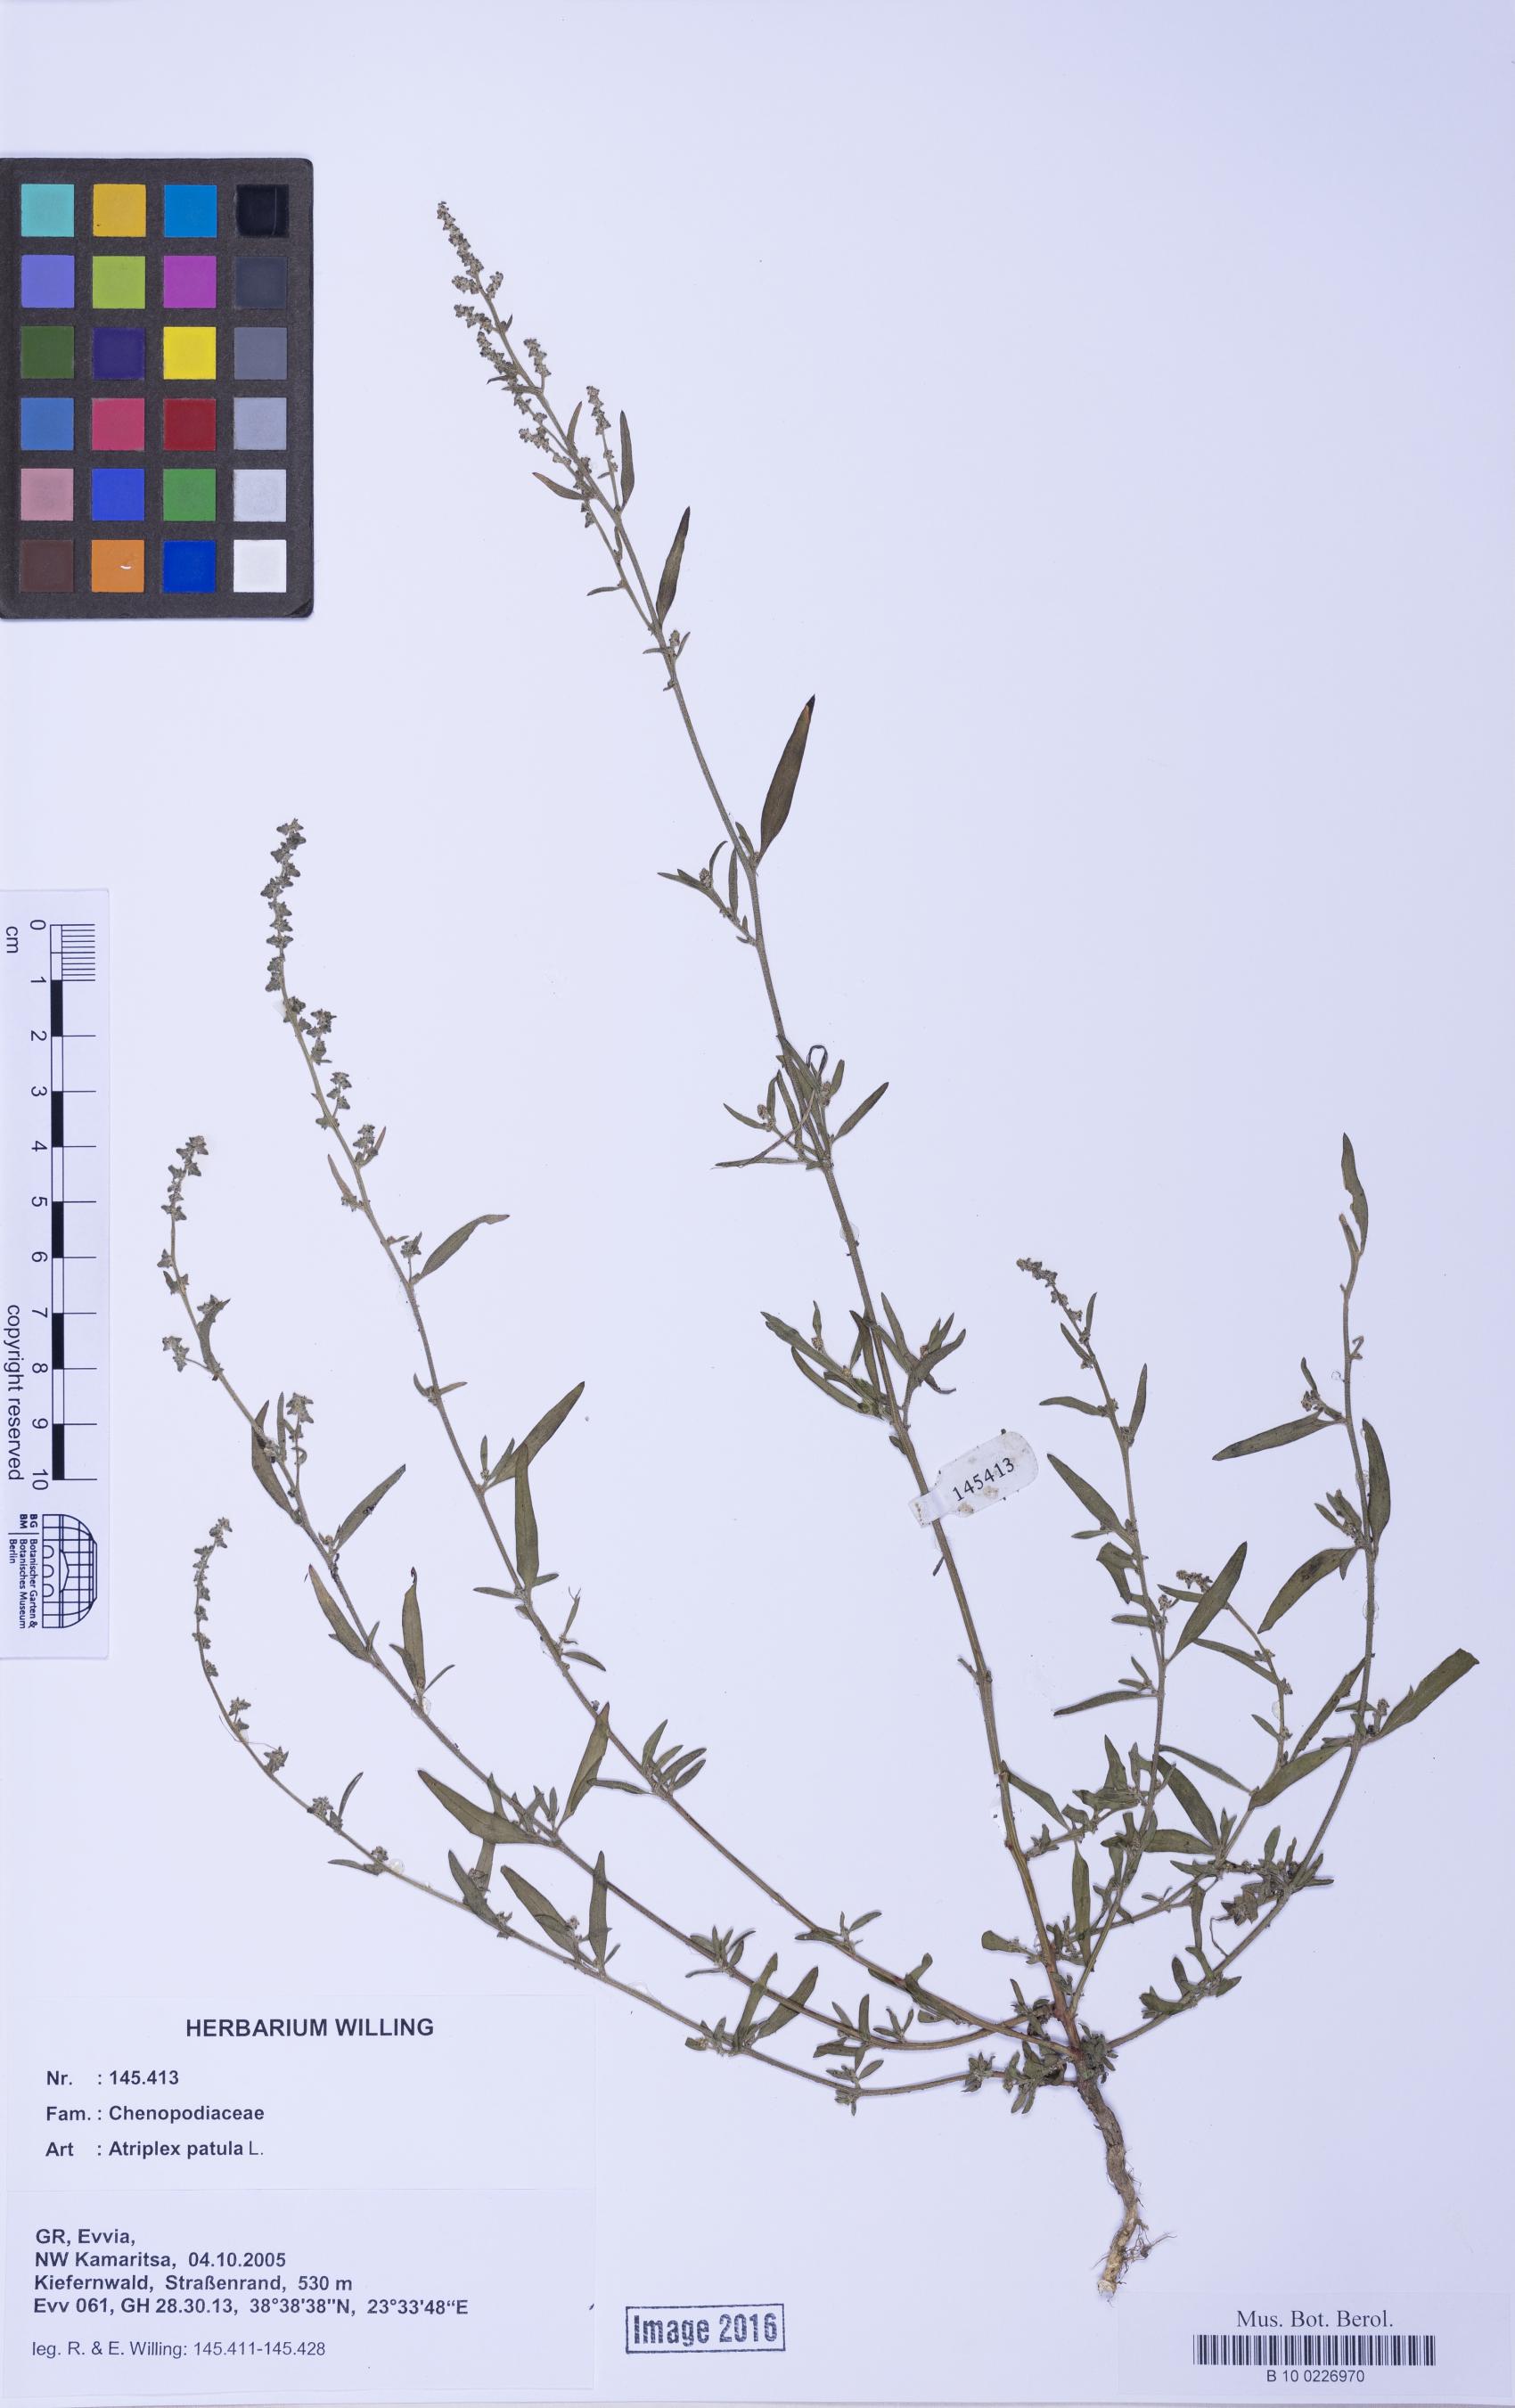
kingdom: Plantae
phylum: Tracheophyta
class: Magnoliopsida
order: Caryophyllales
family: Amaranthaceae
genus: Atriplex
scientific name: Atriplex patula
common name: Common orache
